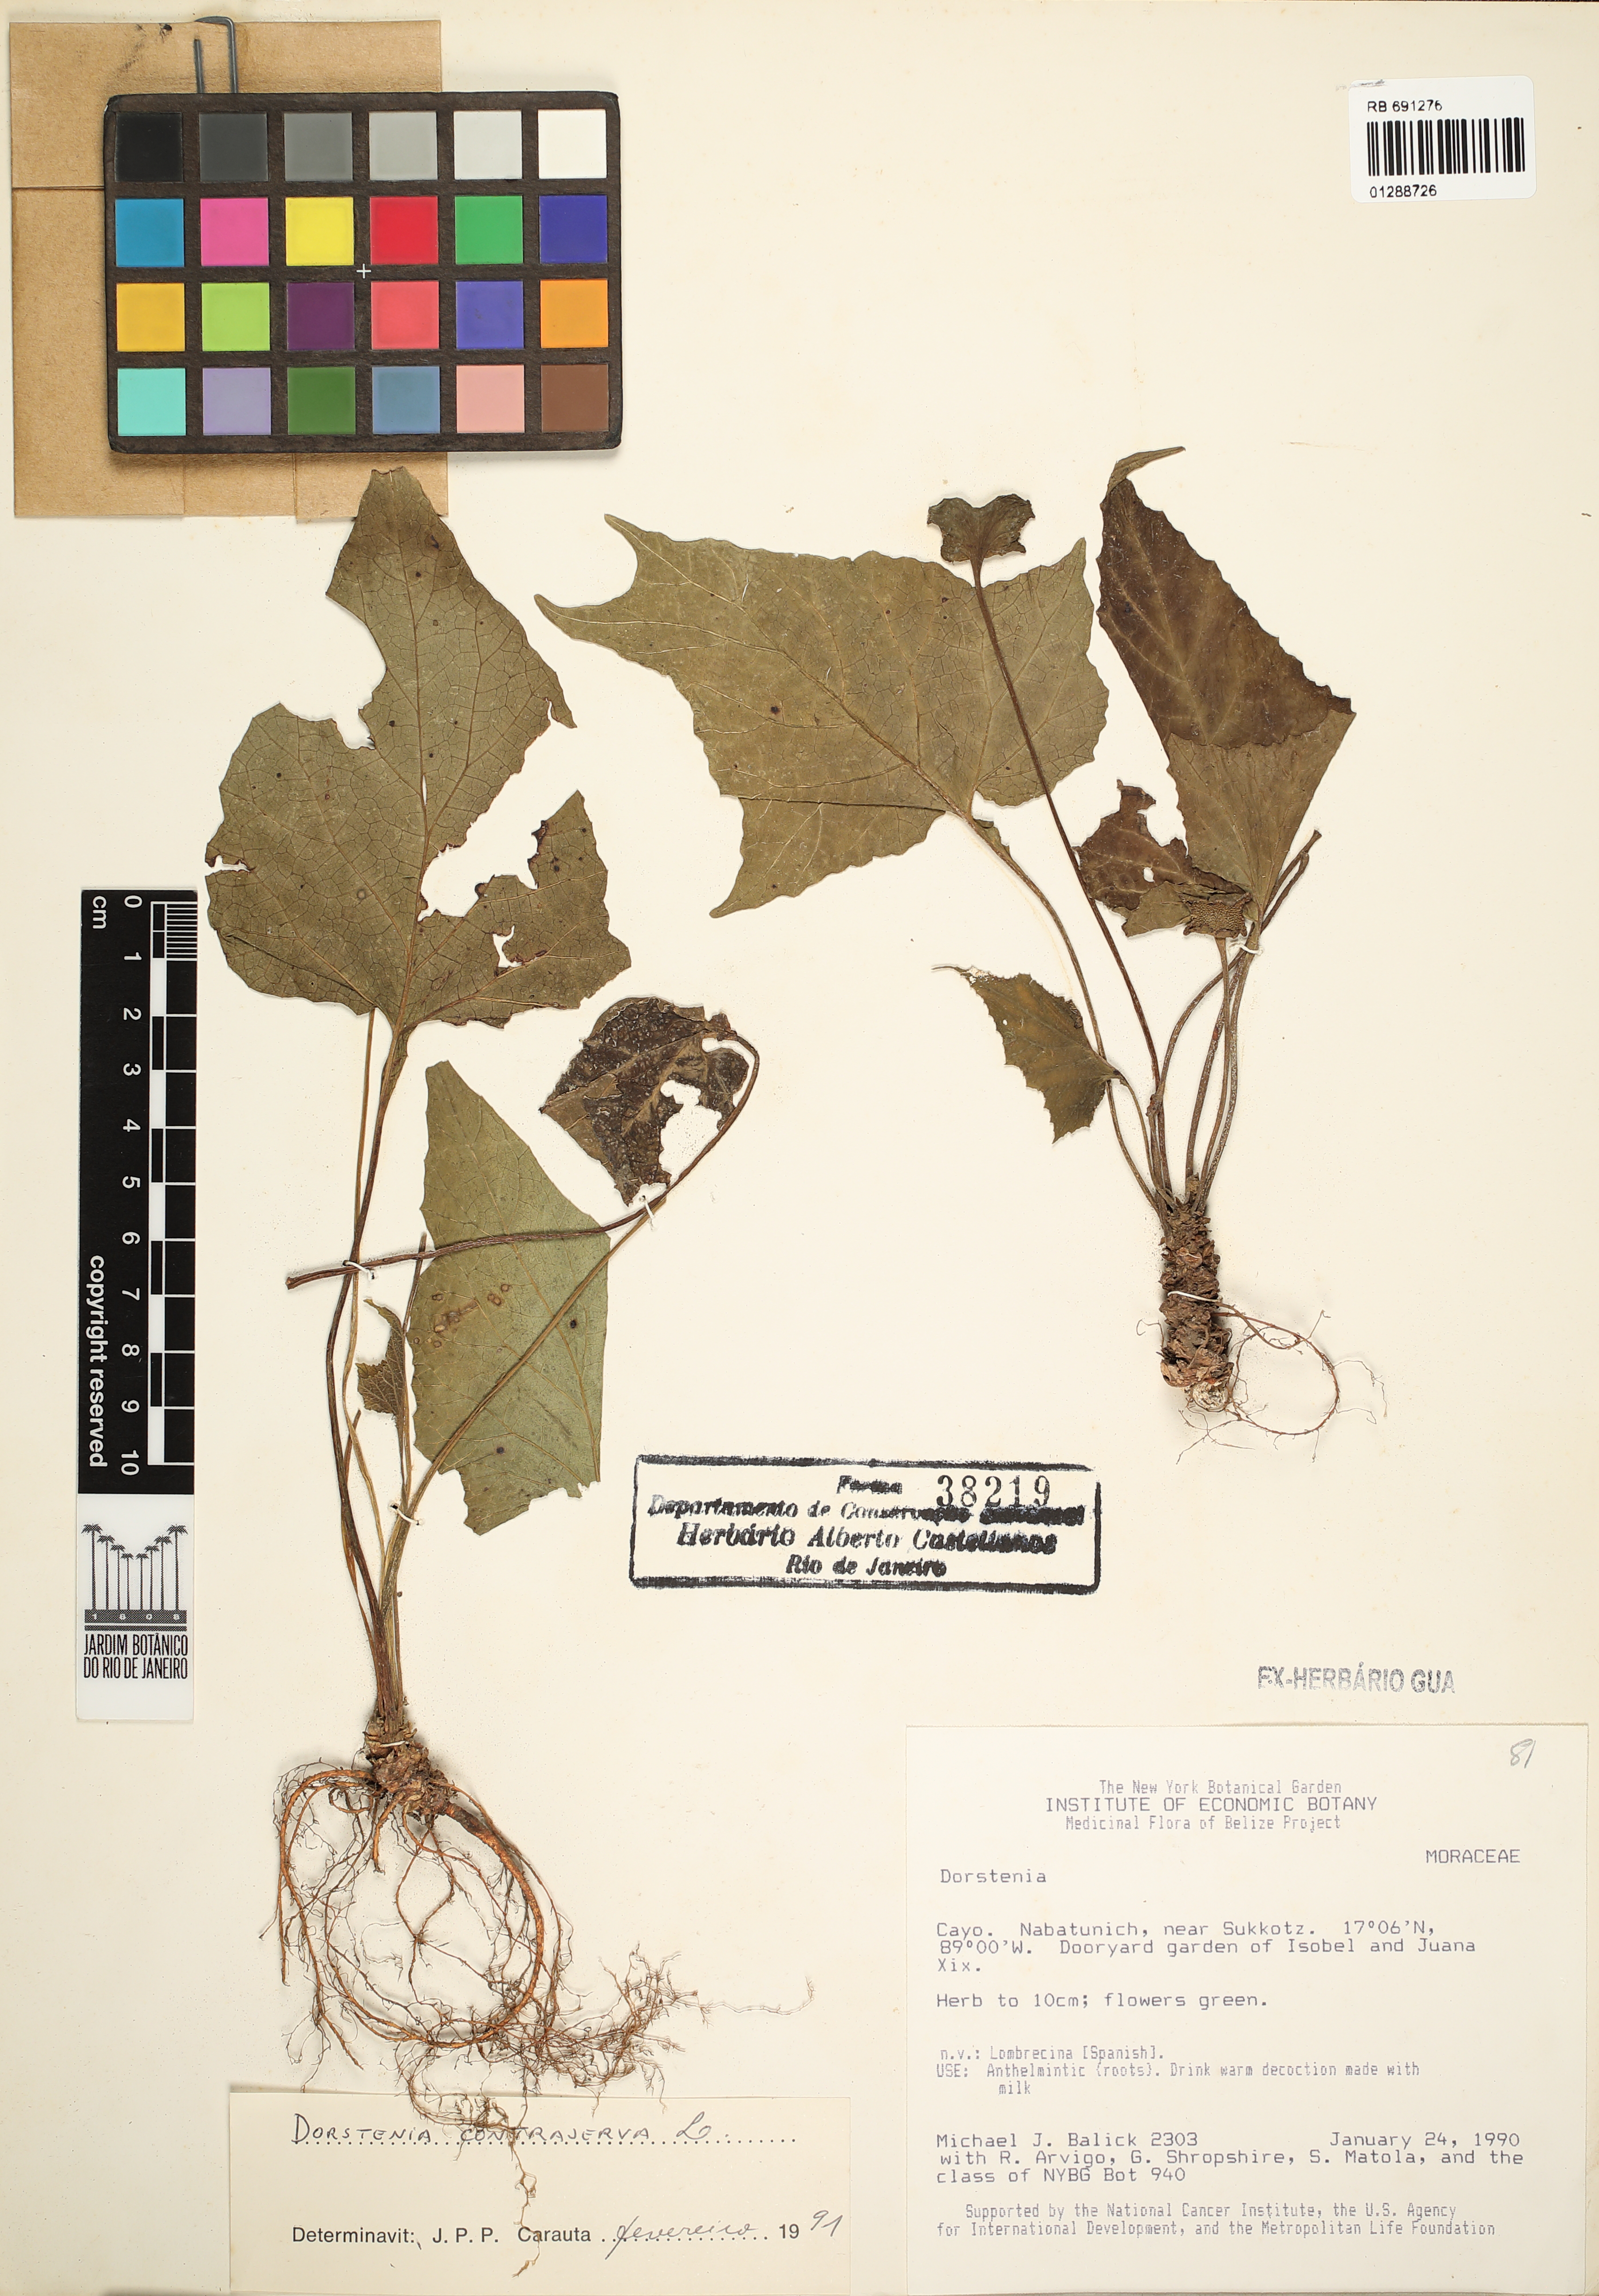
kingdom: Plantae
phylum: Tracheophyta
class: Magnoliopsida
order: Rosales
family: Moraceae
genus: Dorstenia
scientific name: Dorstenia contrajerva
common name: Tusilla
